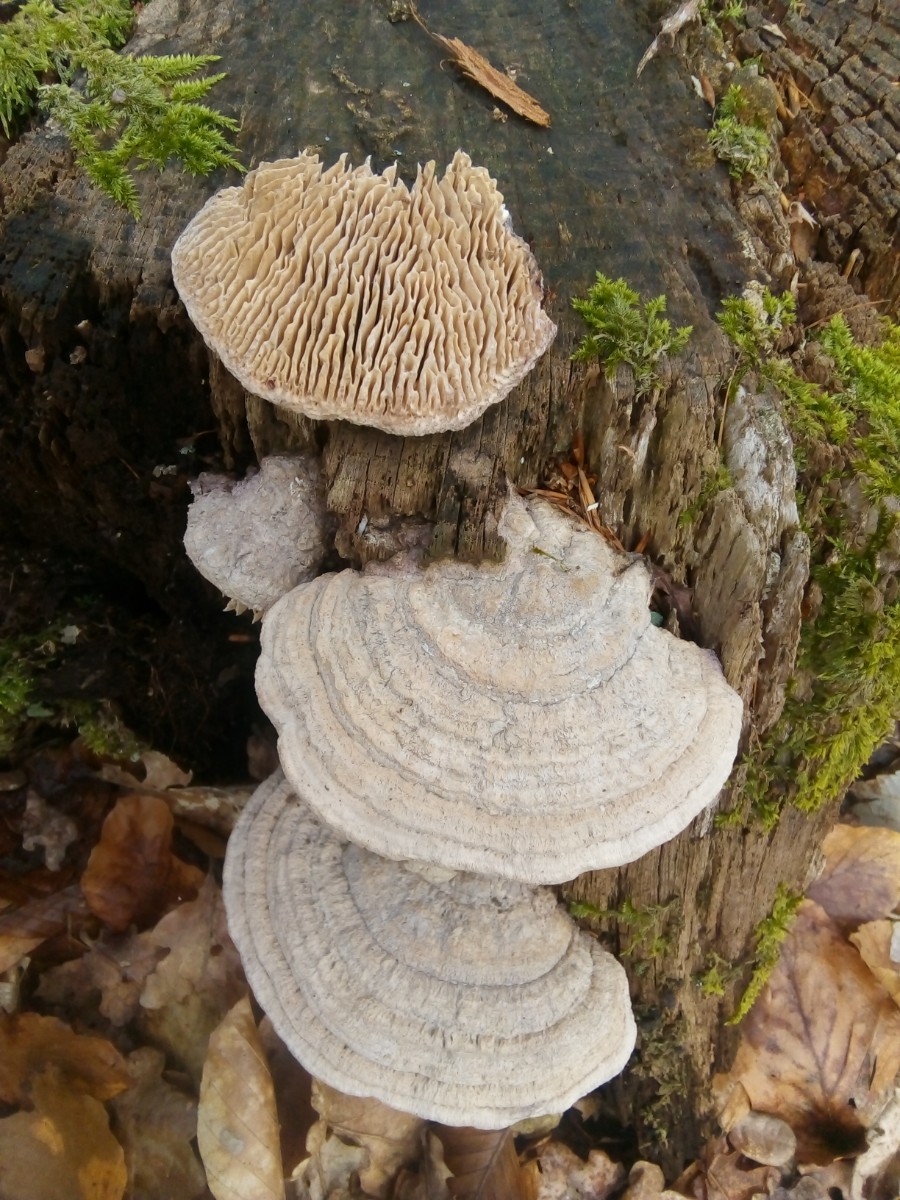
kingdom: Fungi
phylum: Basidiomycota
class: Agaricomycetes
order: Polyporales
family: Fomitopsidaceae
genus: Daedalea
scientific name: Daedalea quercina
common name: ege-labyrintsvamp
